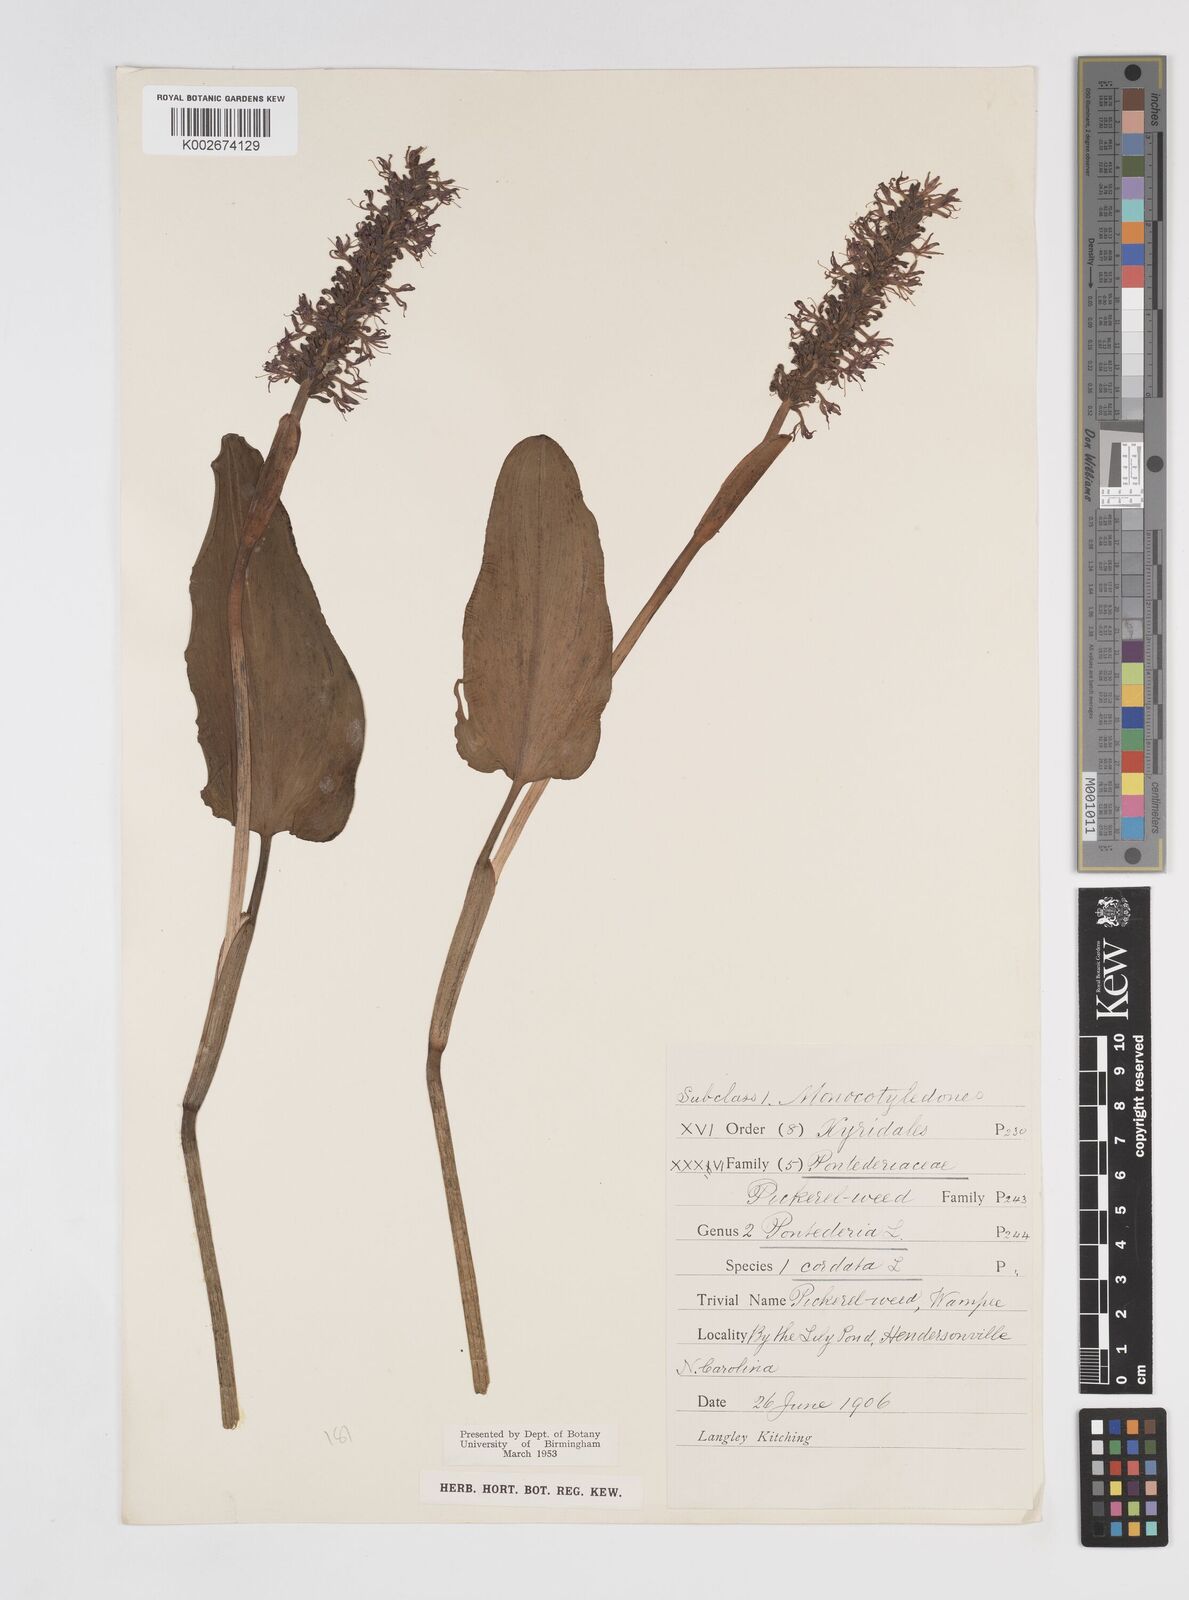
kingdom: Plantae
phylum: Tracheophyta
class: Liliopsida
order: Commelinales
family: Pontederiaceae
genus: Pontederia
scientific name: Pontederia cordata
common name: Pickerelweed
